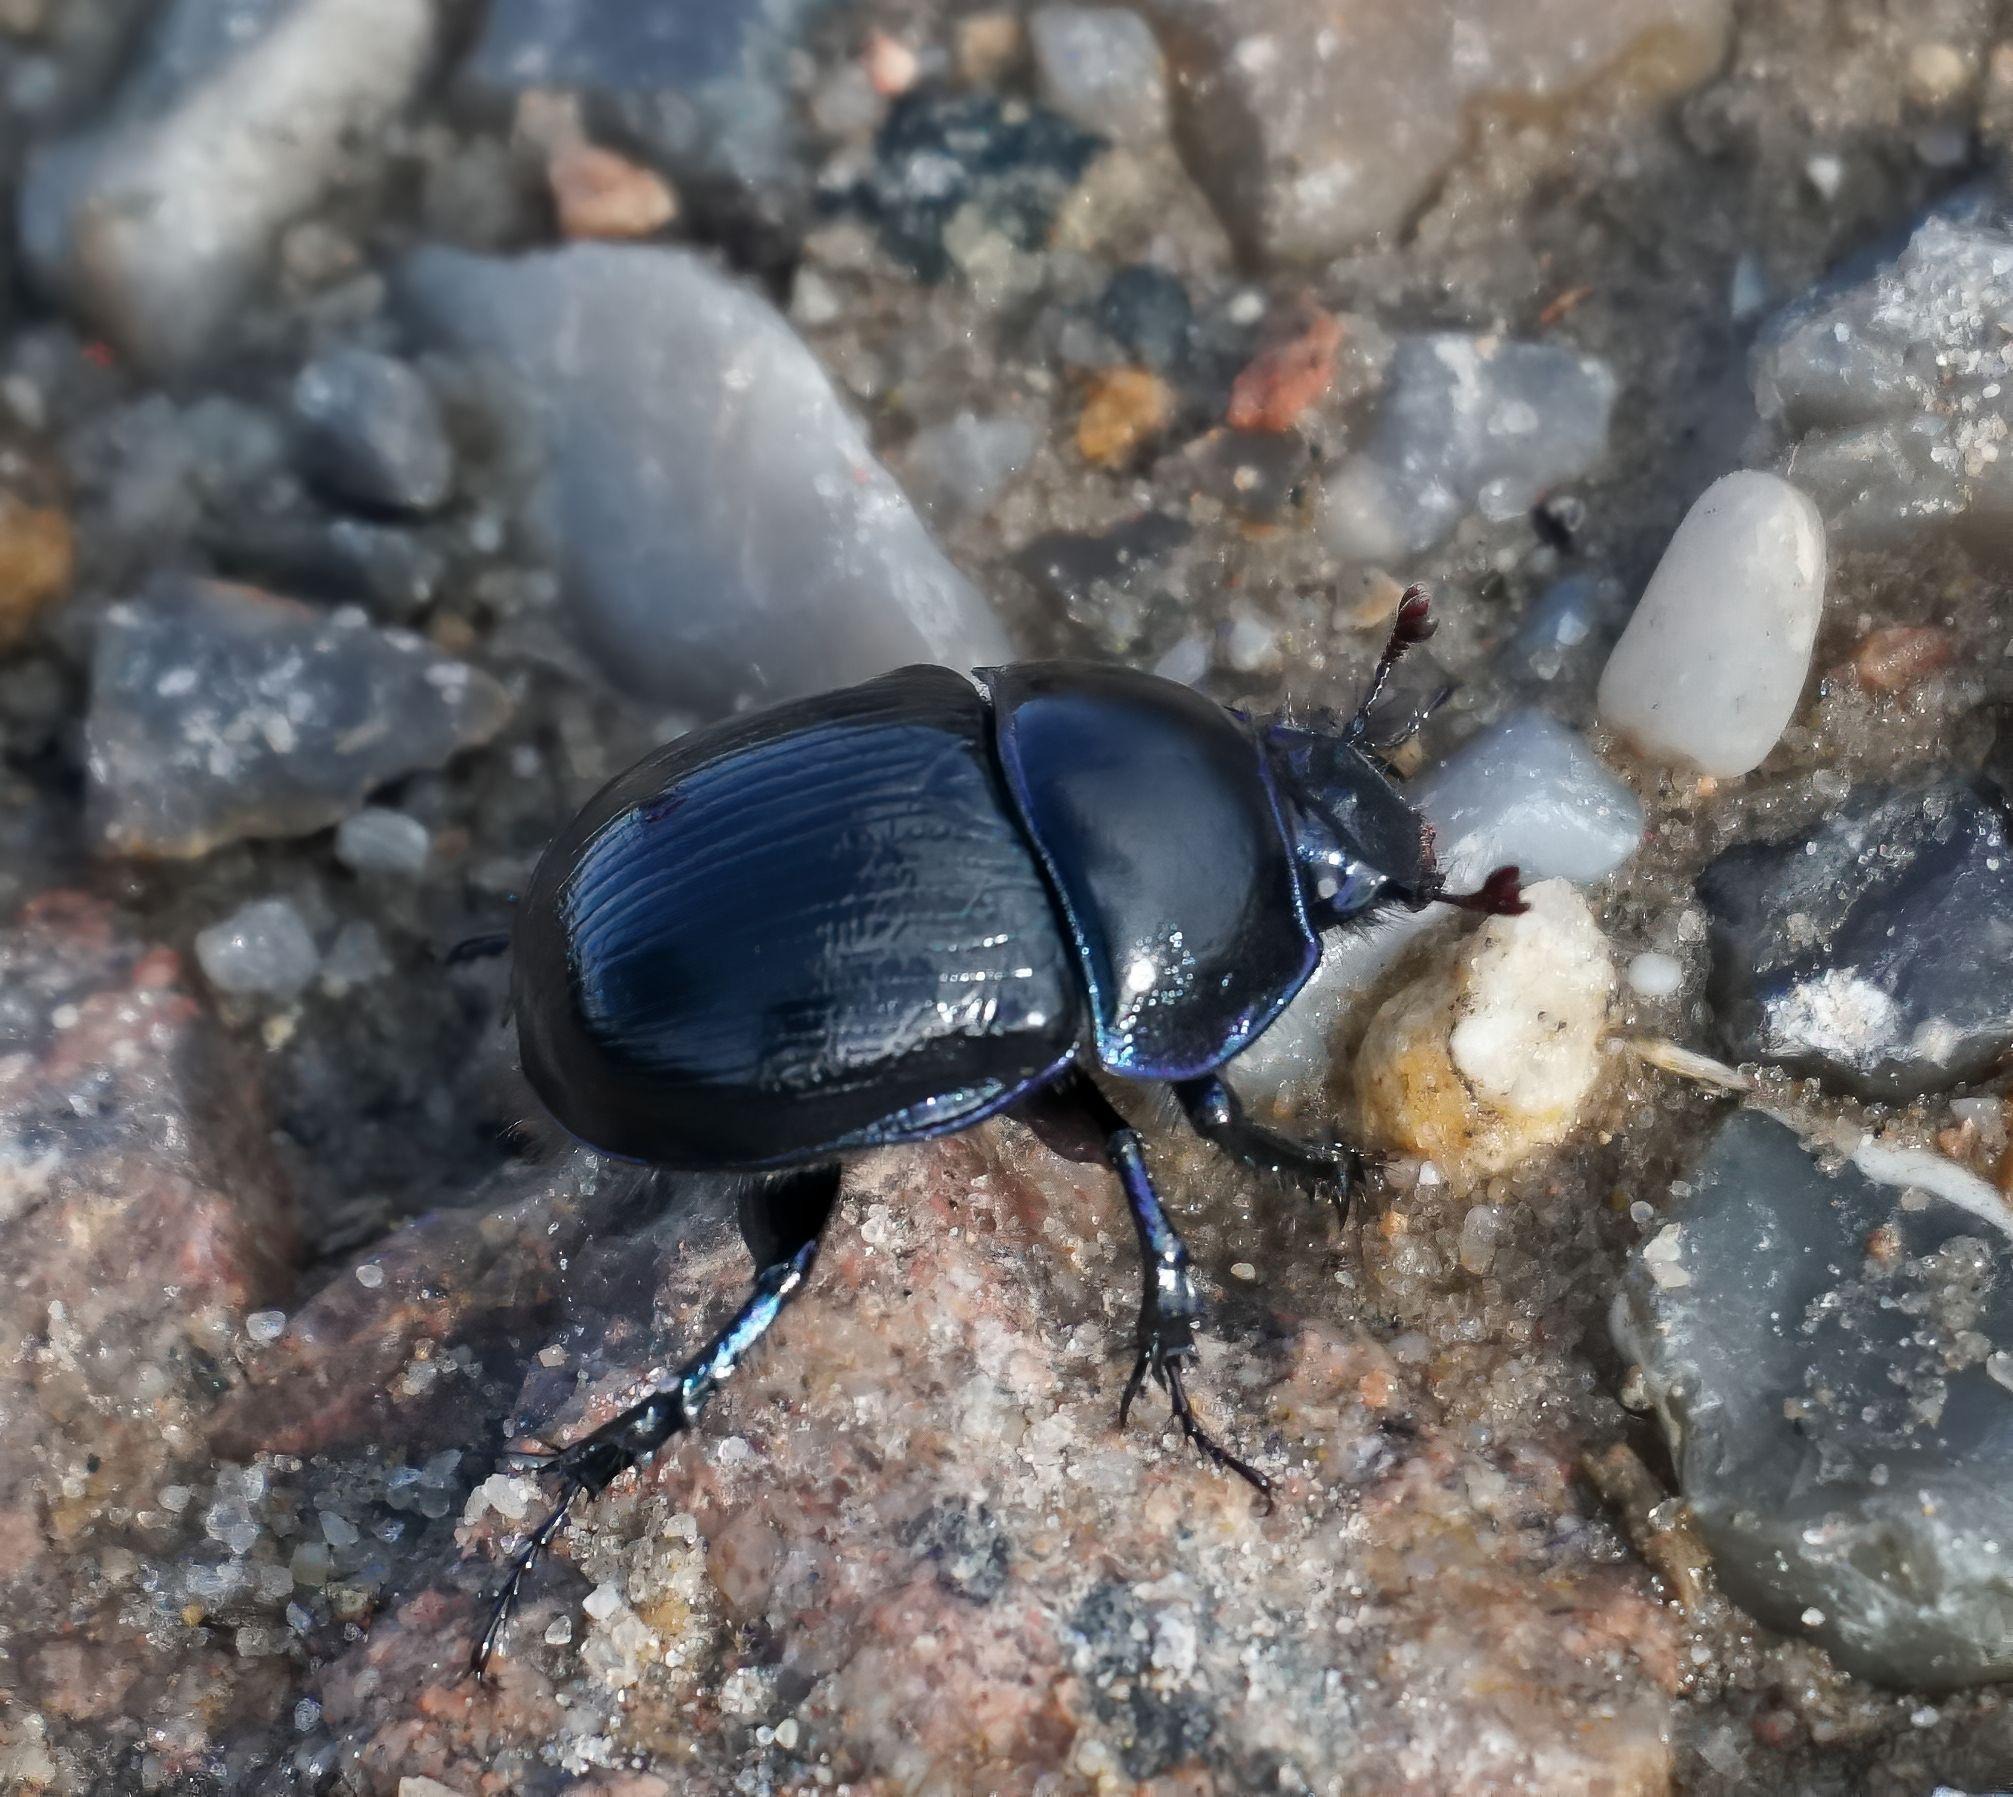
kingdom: Animalia
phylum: Arthropoda
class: Insecta
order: Coleoptera
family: Geotrupidae
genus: Anoplotrupes
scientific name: Anoplotrupes stercorosus
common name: Skovskarnbasse
